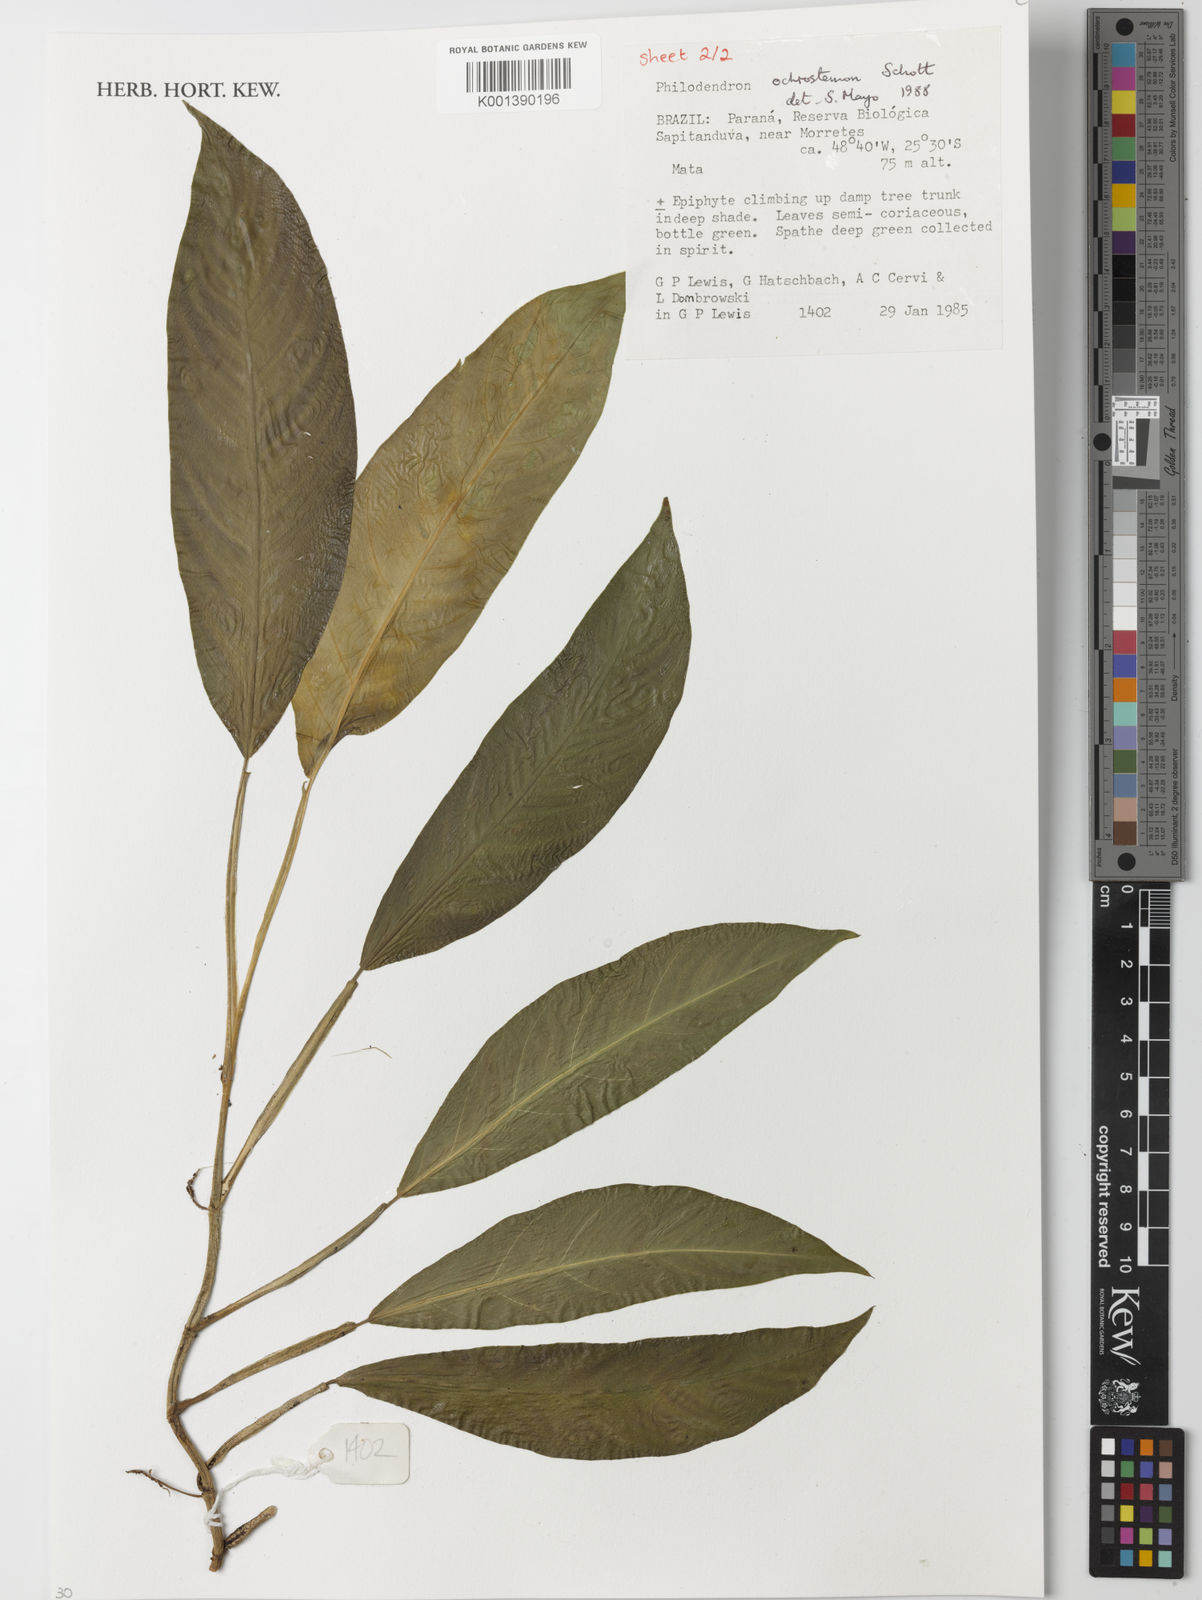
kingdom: Plantae
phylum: Tracheophyta
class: Liliopsida
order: Alismatales
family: Araceae
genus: Philodendron
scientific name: Philodendron ochrostemon
